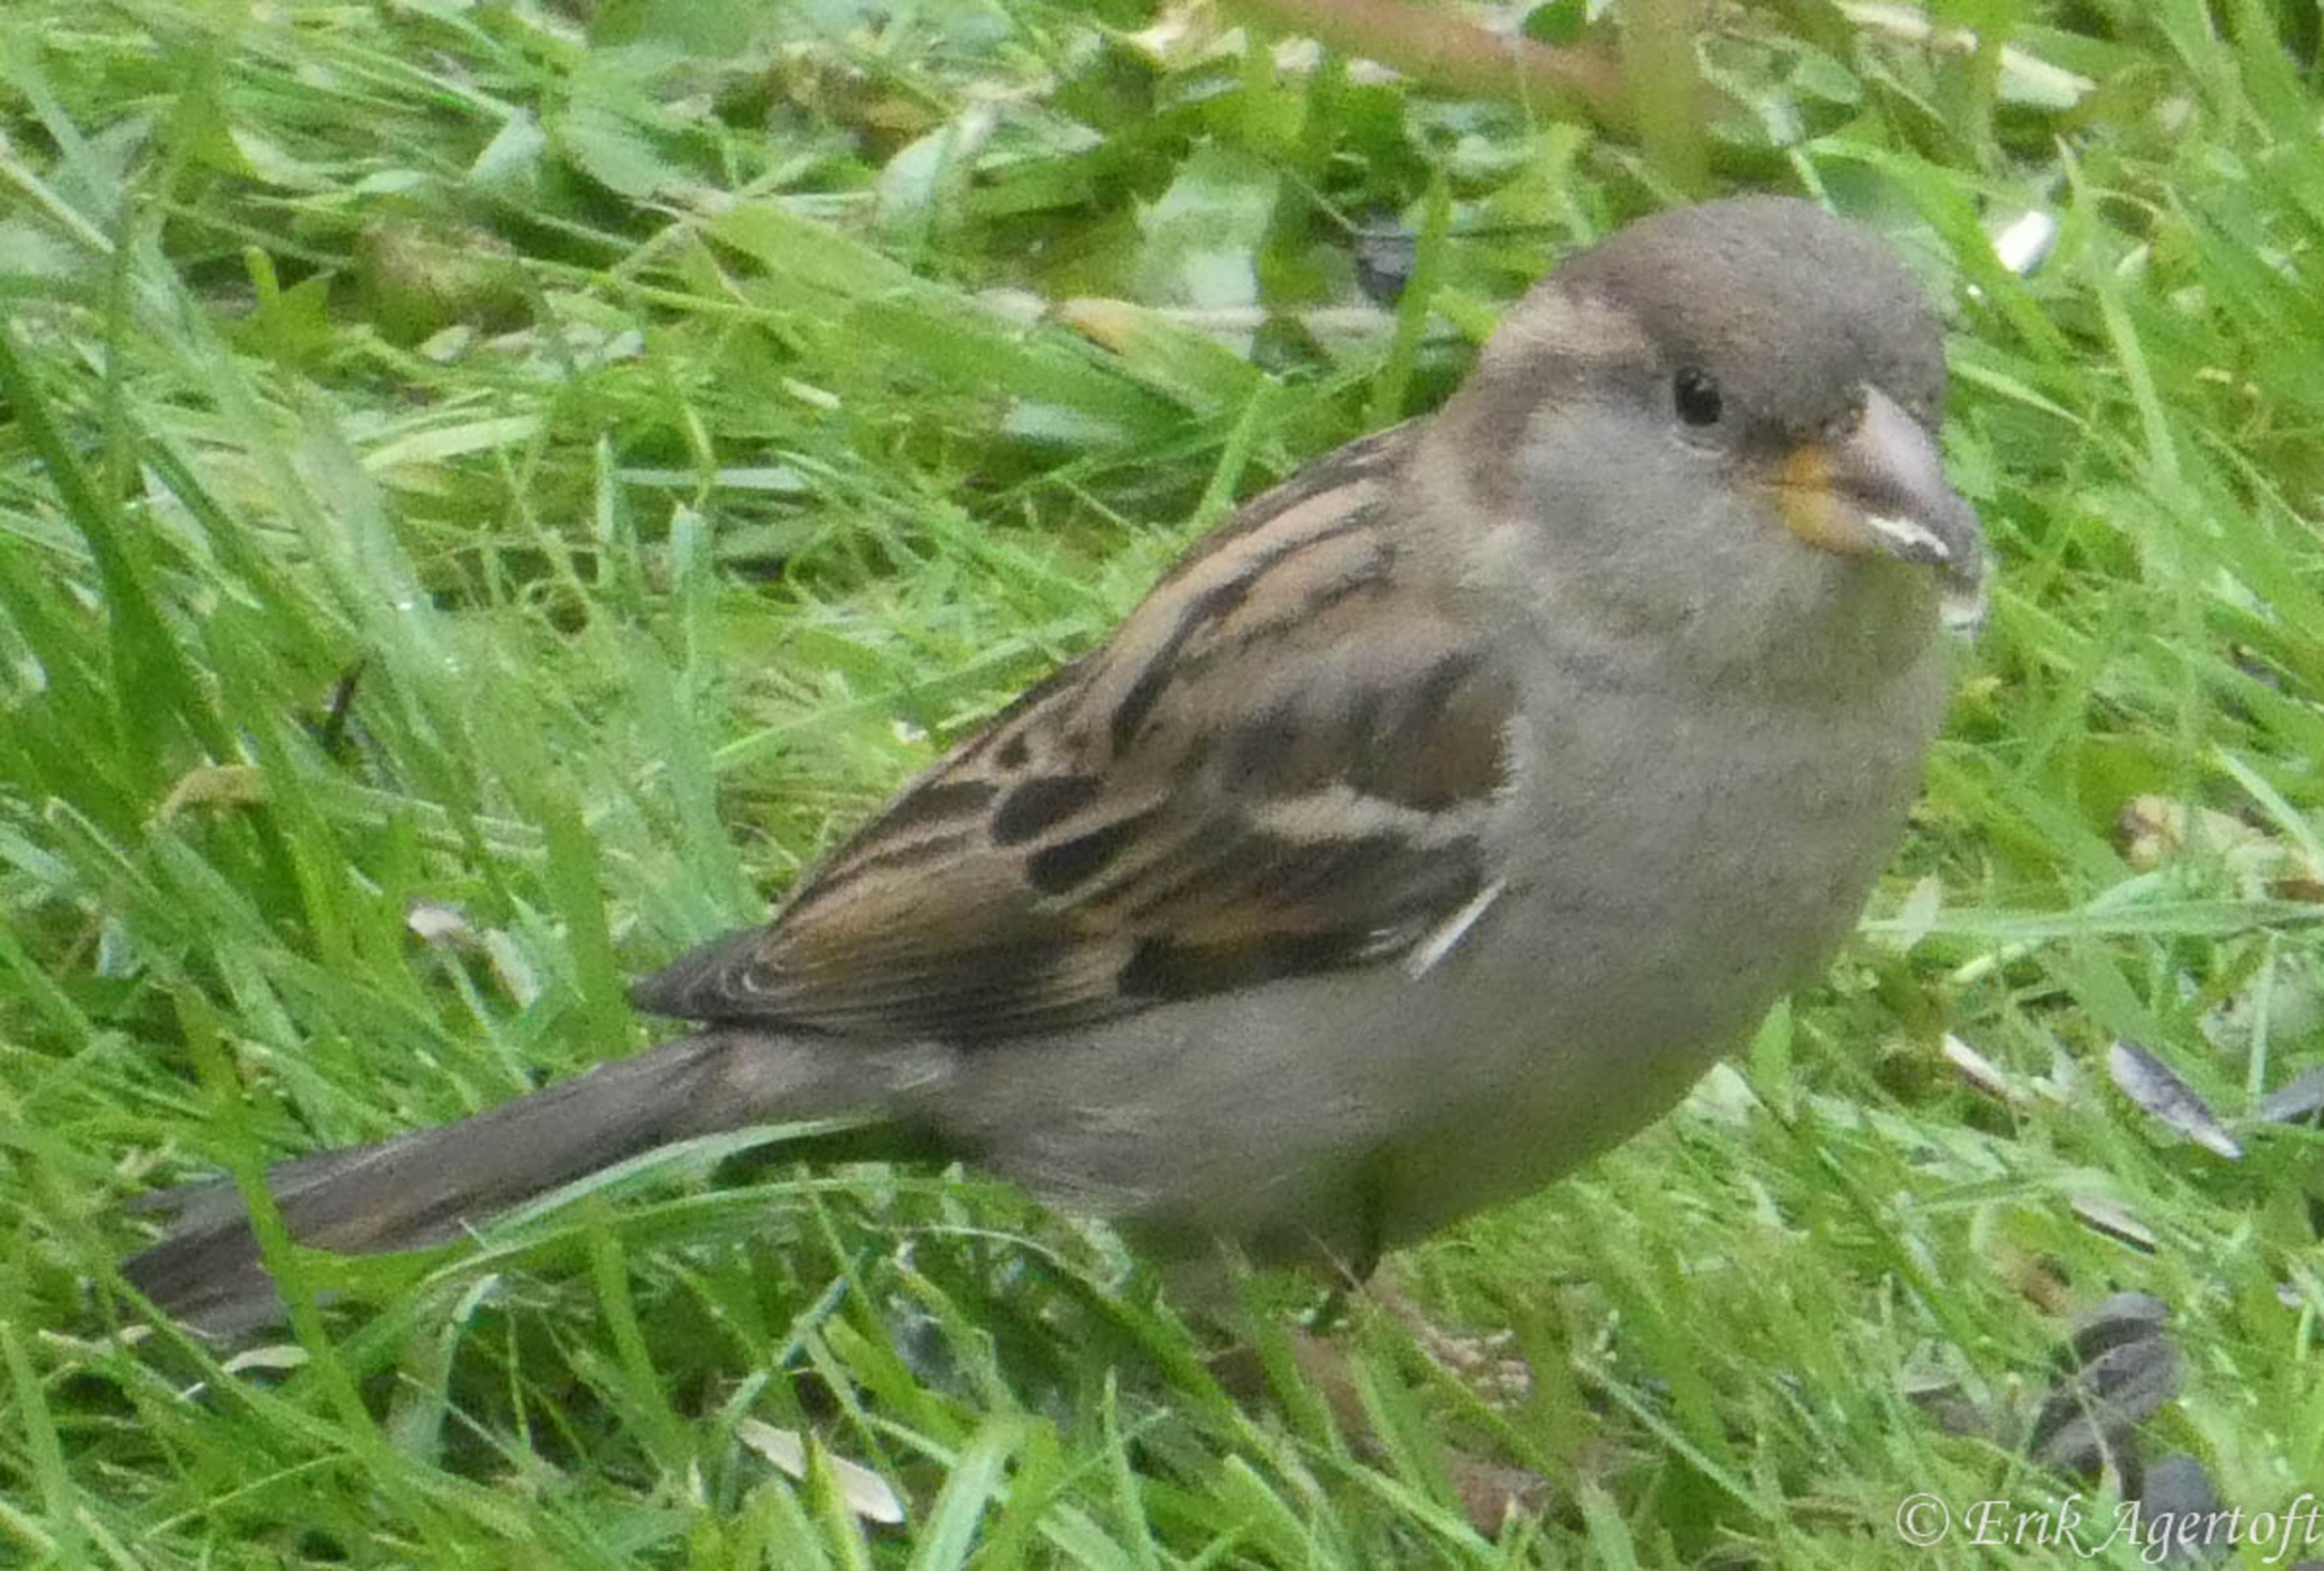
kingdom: Animalia
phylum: Chordata
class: Aves
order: Passeriformes
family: Passeridae
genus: Passer
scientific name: Passer domesticus
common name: Gråspurv
